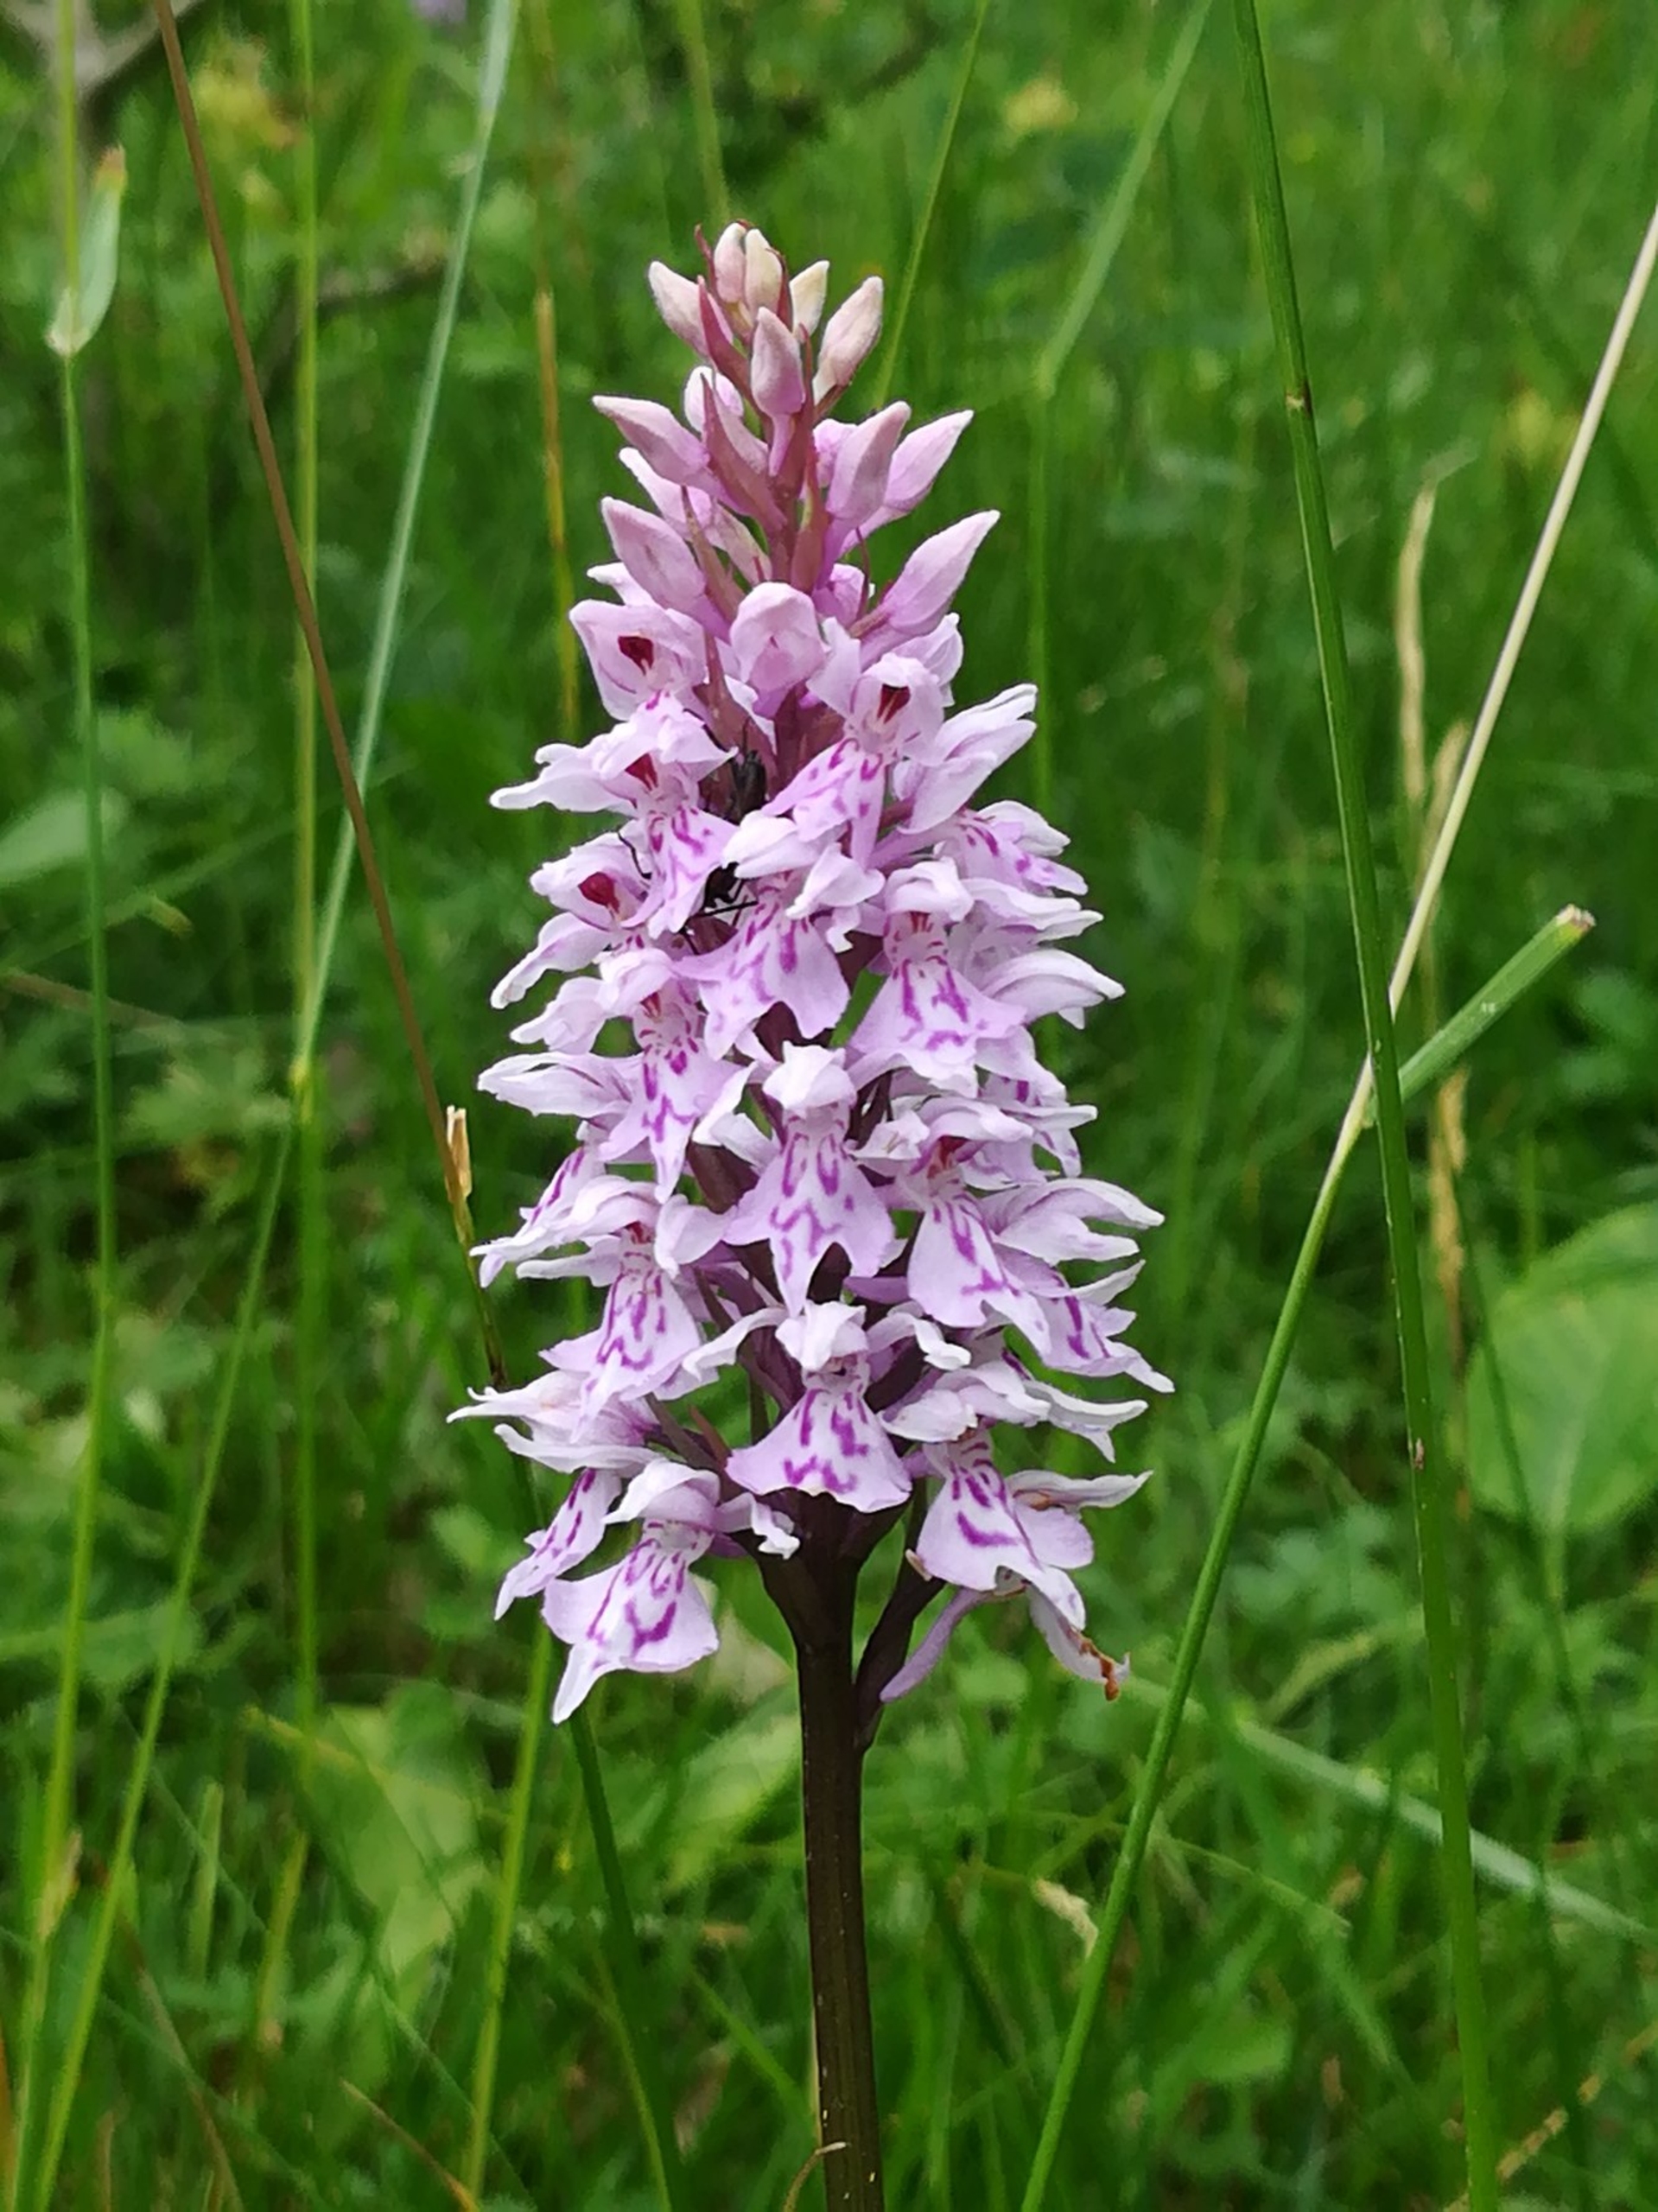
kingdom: Plantae
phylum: Tracheophyta
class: Liliopsida
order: Asparagales
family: Orchidaceae
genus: Dactylorhiza
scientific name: Dactylorhiza maculata
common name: Skov-gøgeurt
